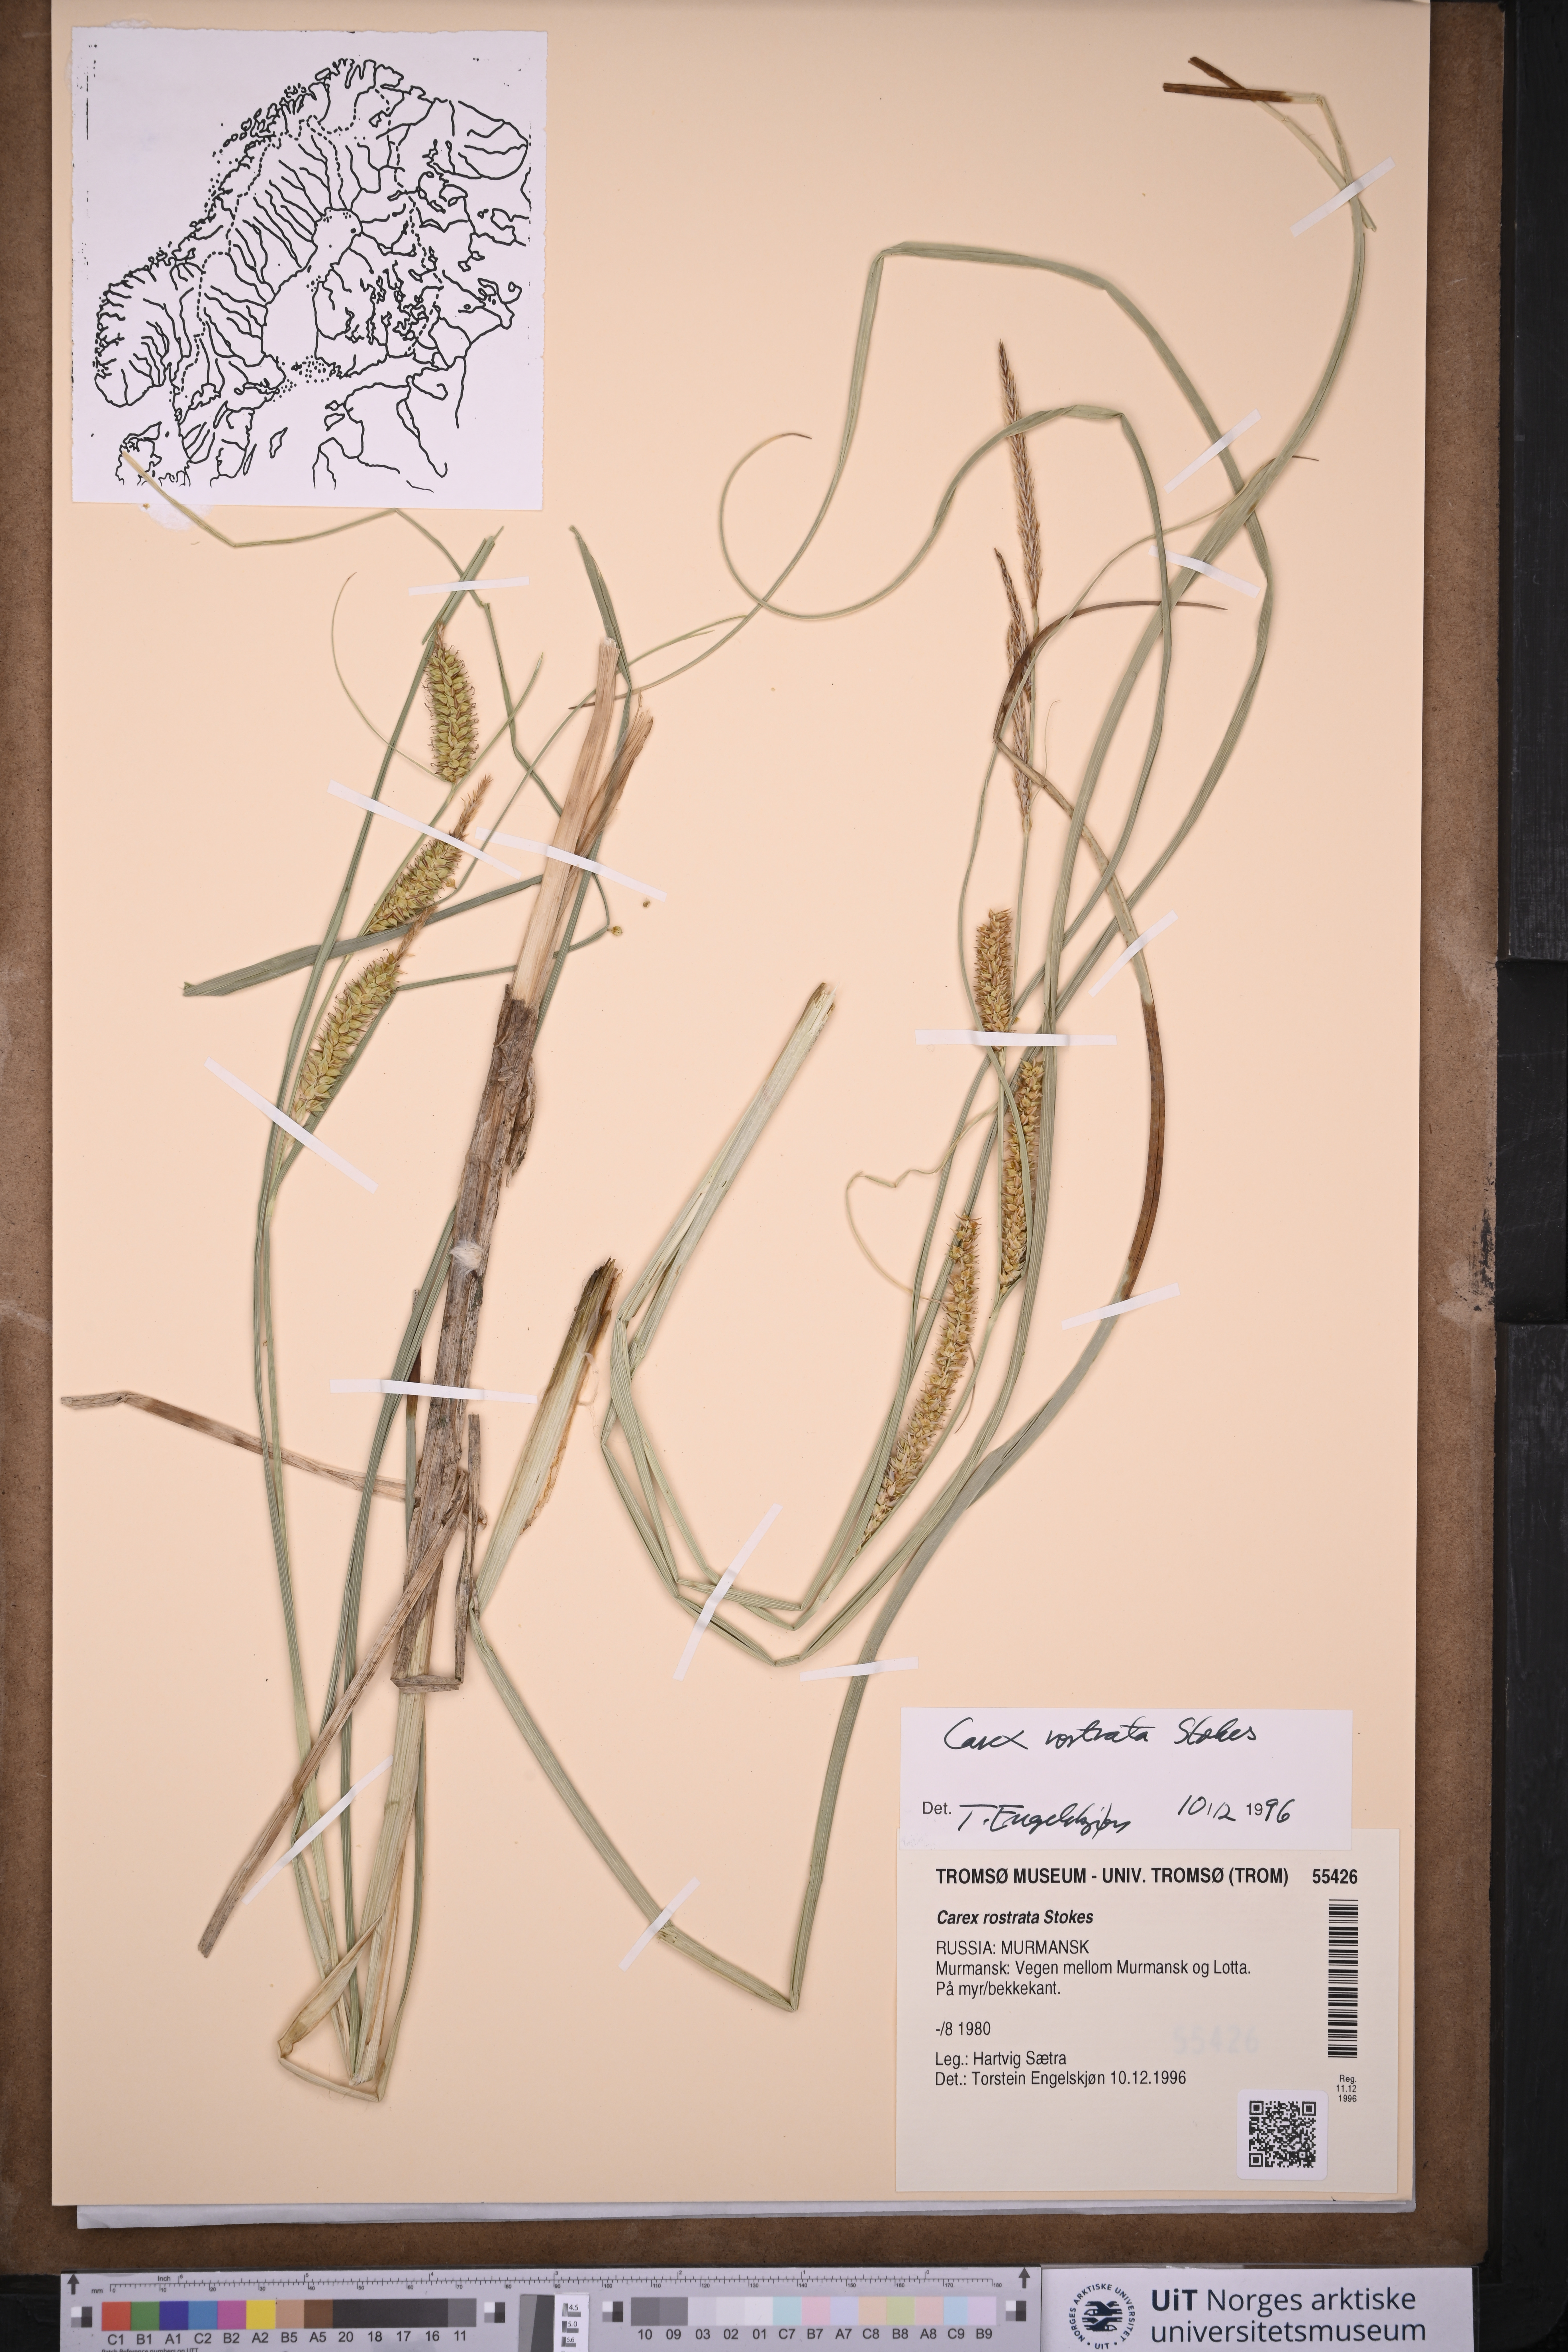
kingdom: Plantae
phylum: Tracheophyta
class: Liliopsida
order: Poales
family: Cyperaceae
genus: Carex
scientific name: Carex rostrata
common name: Bottle sedge
